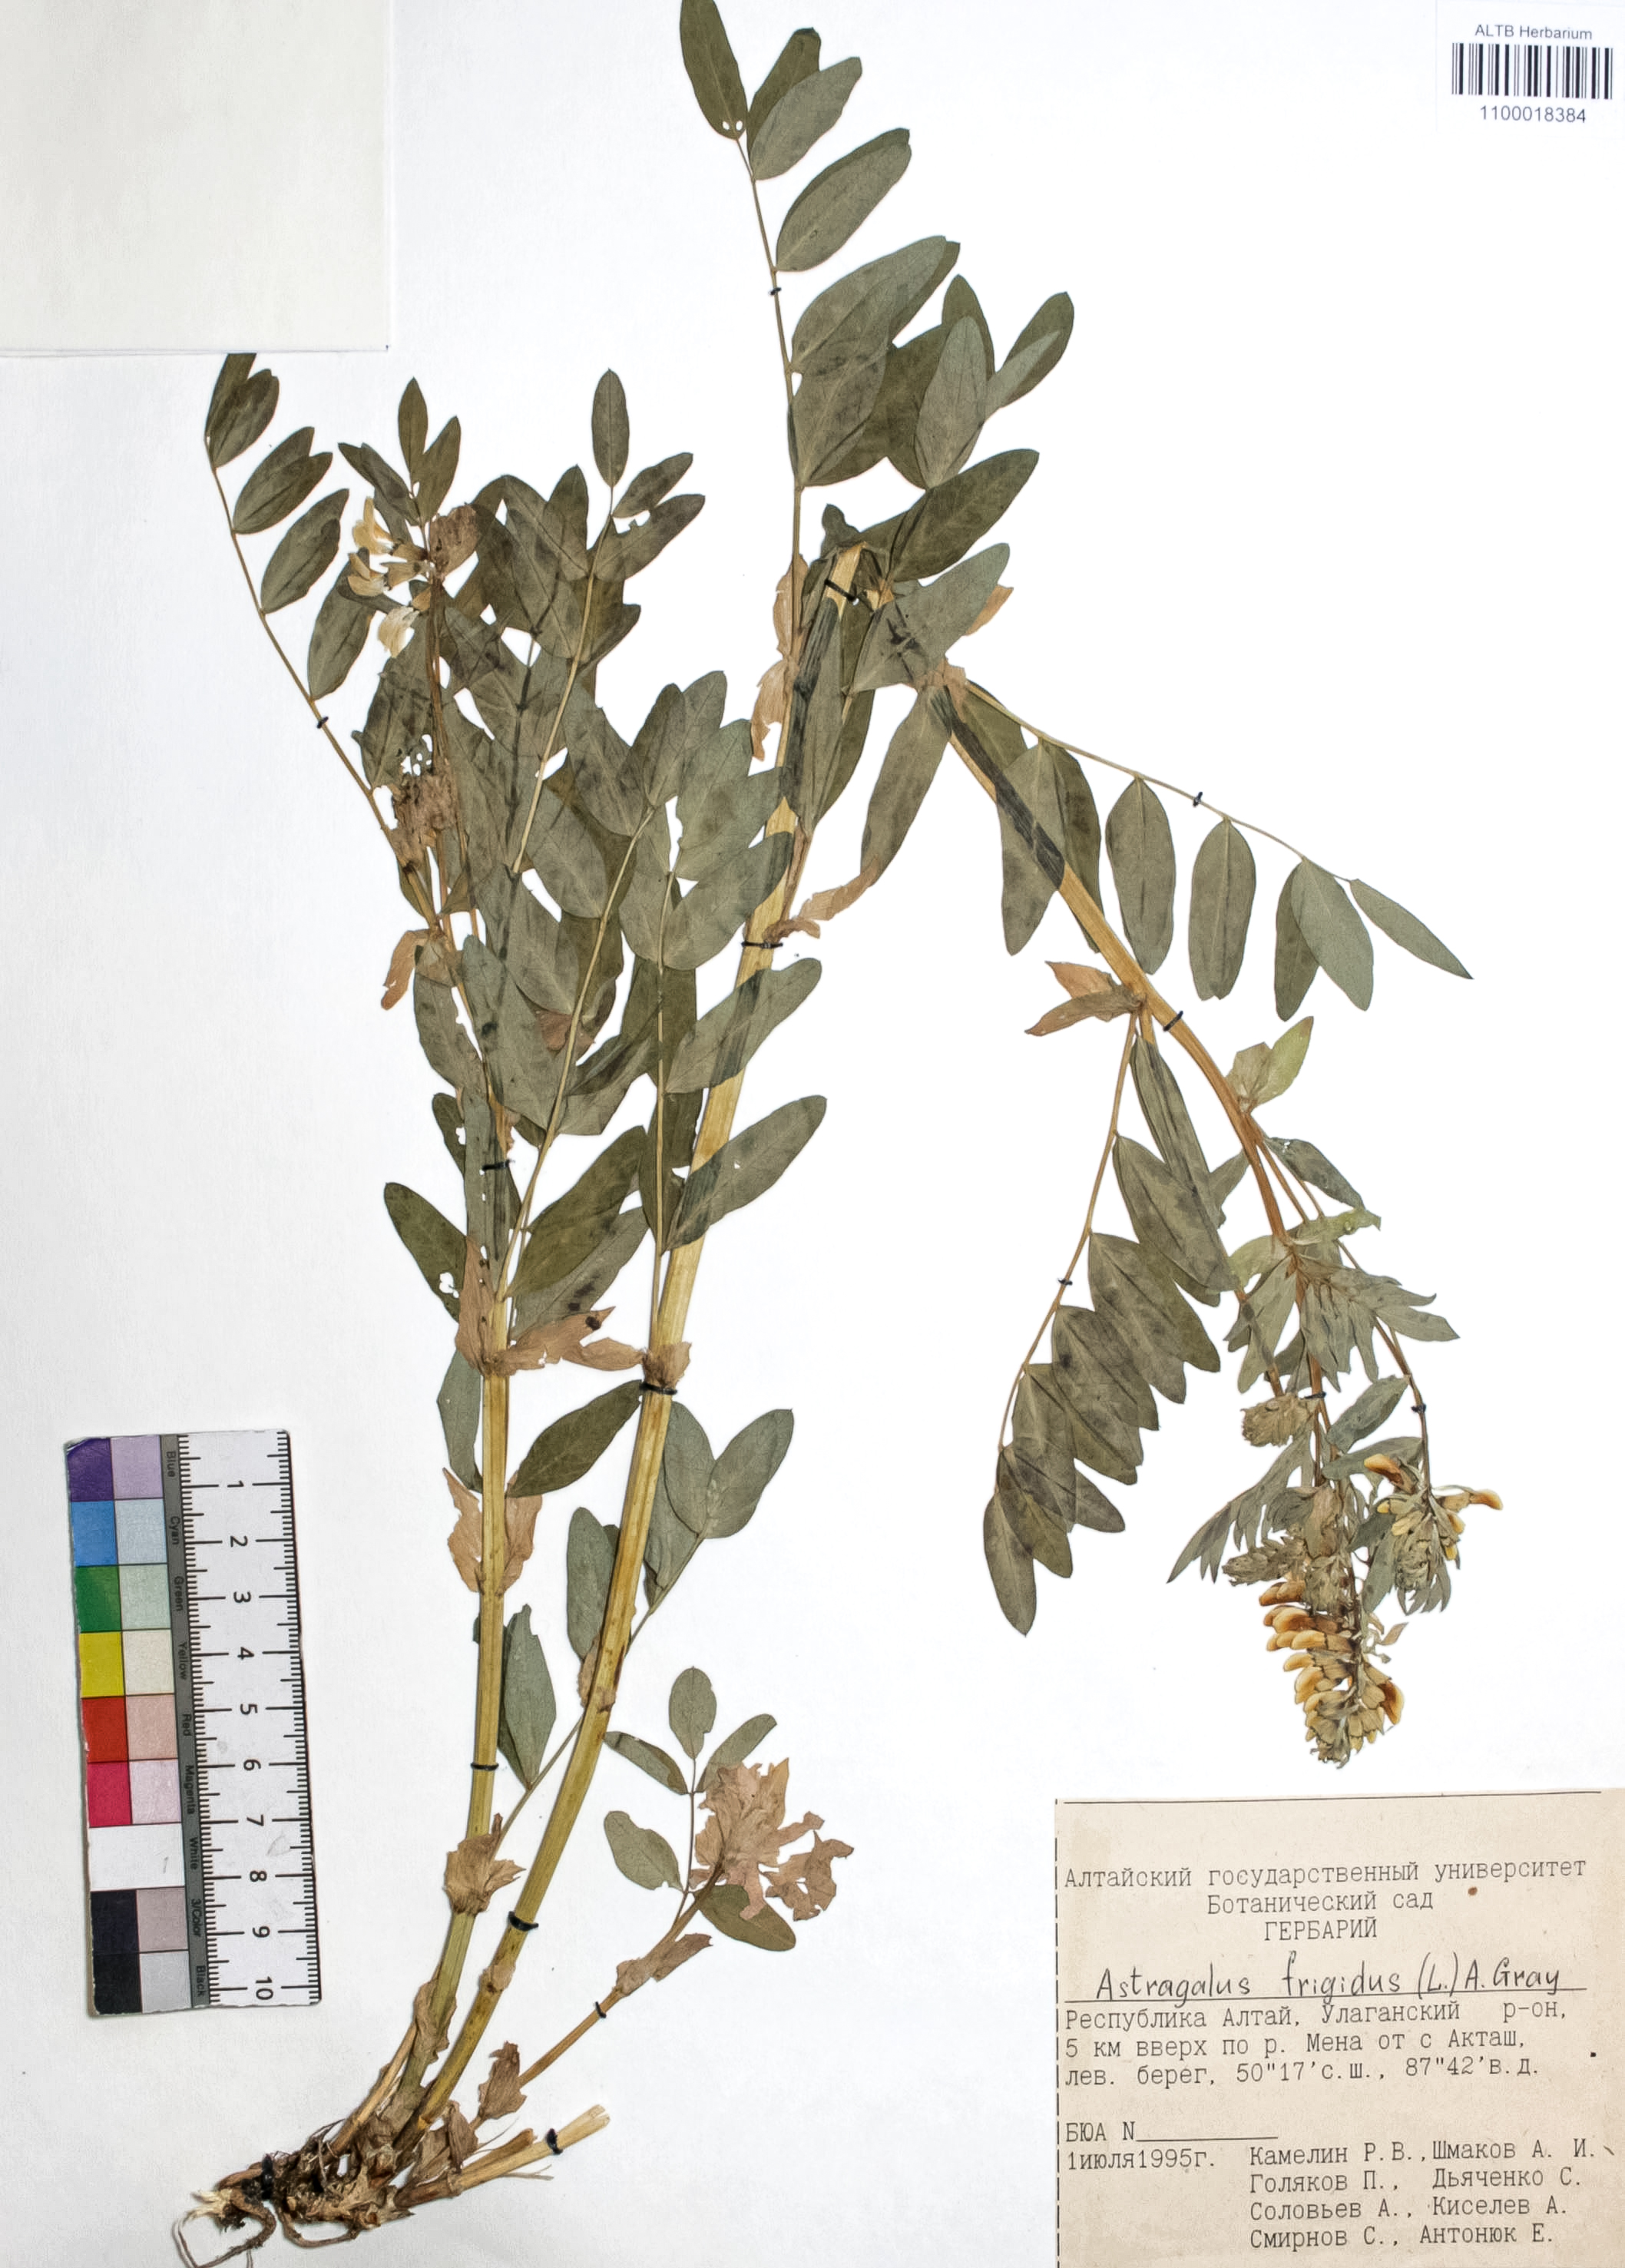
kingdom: Plantae
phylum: Tracheophyta
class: Magnoliopsida
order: Fabales
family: Fabaceae
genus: Astragalus
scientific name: Astragalus frigidus
